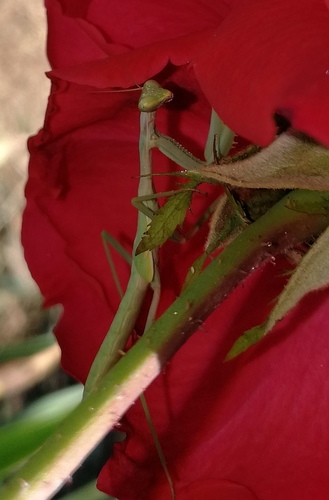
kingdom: Animalia
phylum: Arthropoda
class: Insecta
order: Mantodea
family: Eremiaphilidae
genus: Iris
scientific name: Iris oratoria
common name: Mediterranean mantis
